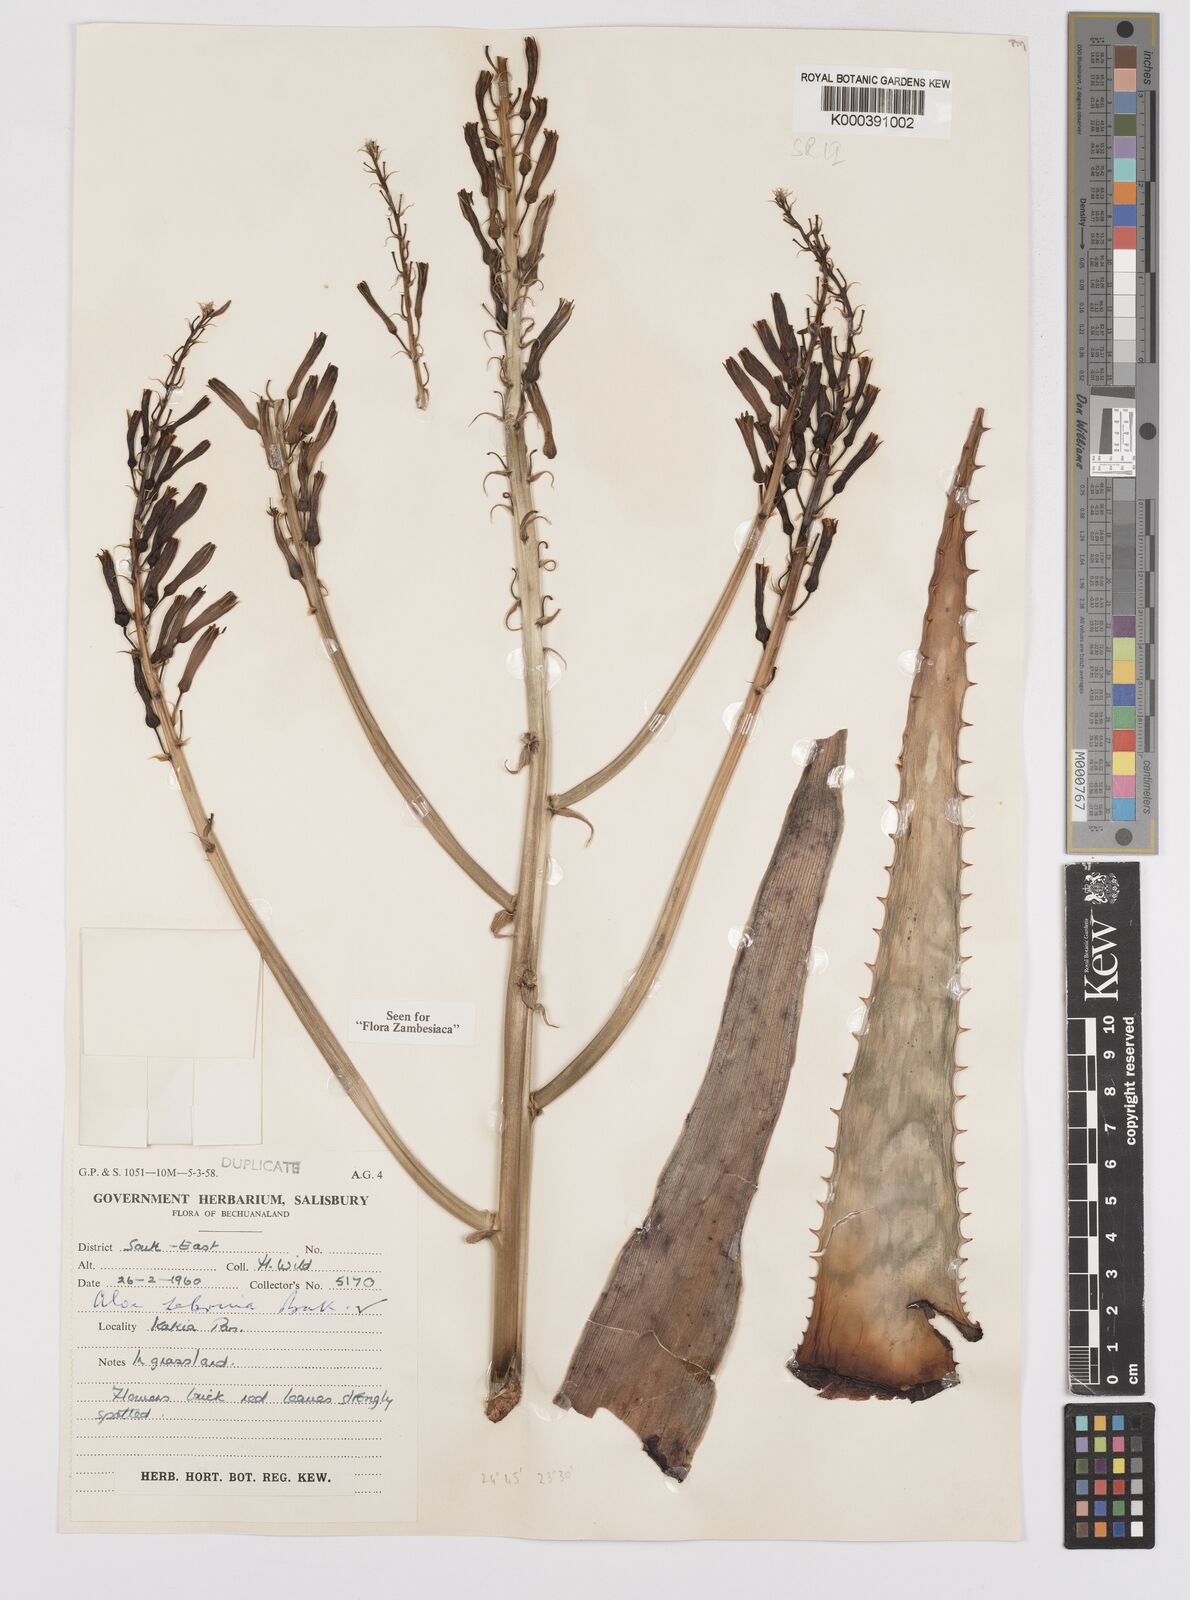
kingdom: Plantae
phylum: Tracheophyta
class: Liliopsida
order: Asparagales
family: Asphodelaceae
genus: Aloe
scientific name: Aloe zebrina
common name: Zebra-leaf aloe
